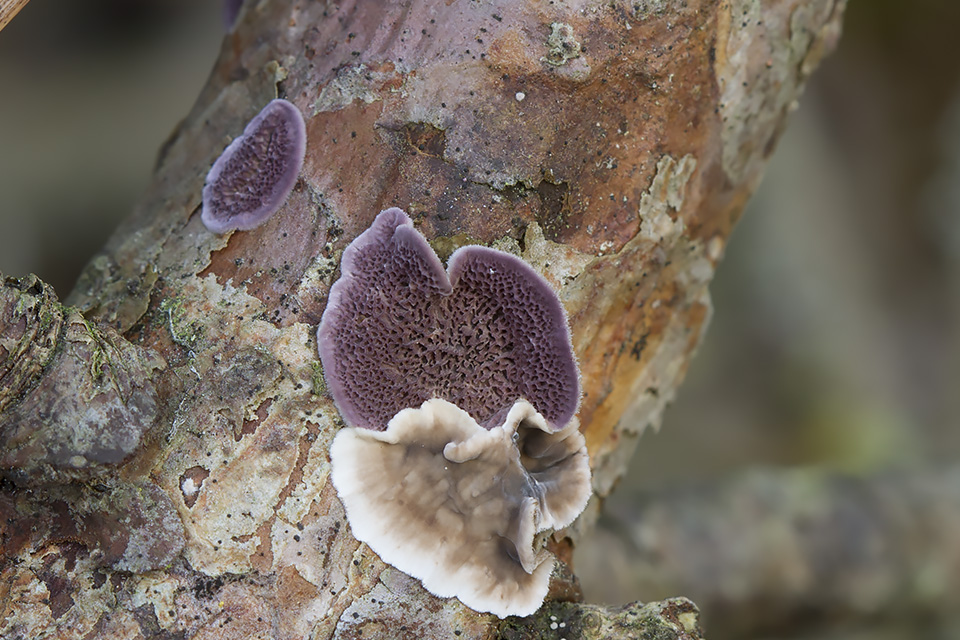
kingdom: Fungi
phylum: Basidiomycota
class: Agaricomycetes
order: Russulales
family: Stereaceae
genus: Stereum
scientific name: Stereum sanguinolentum
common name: blødende lædersvamp
